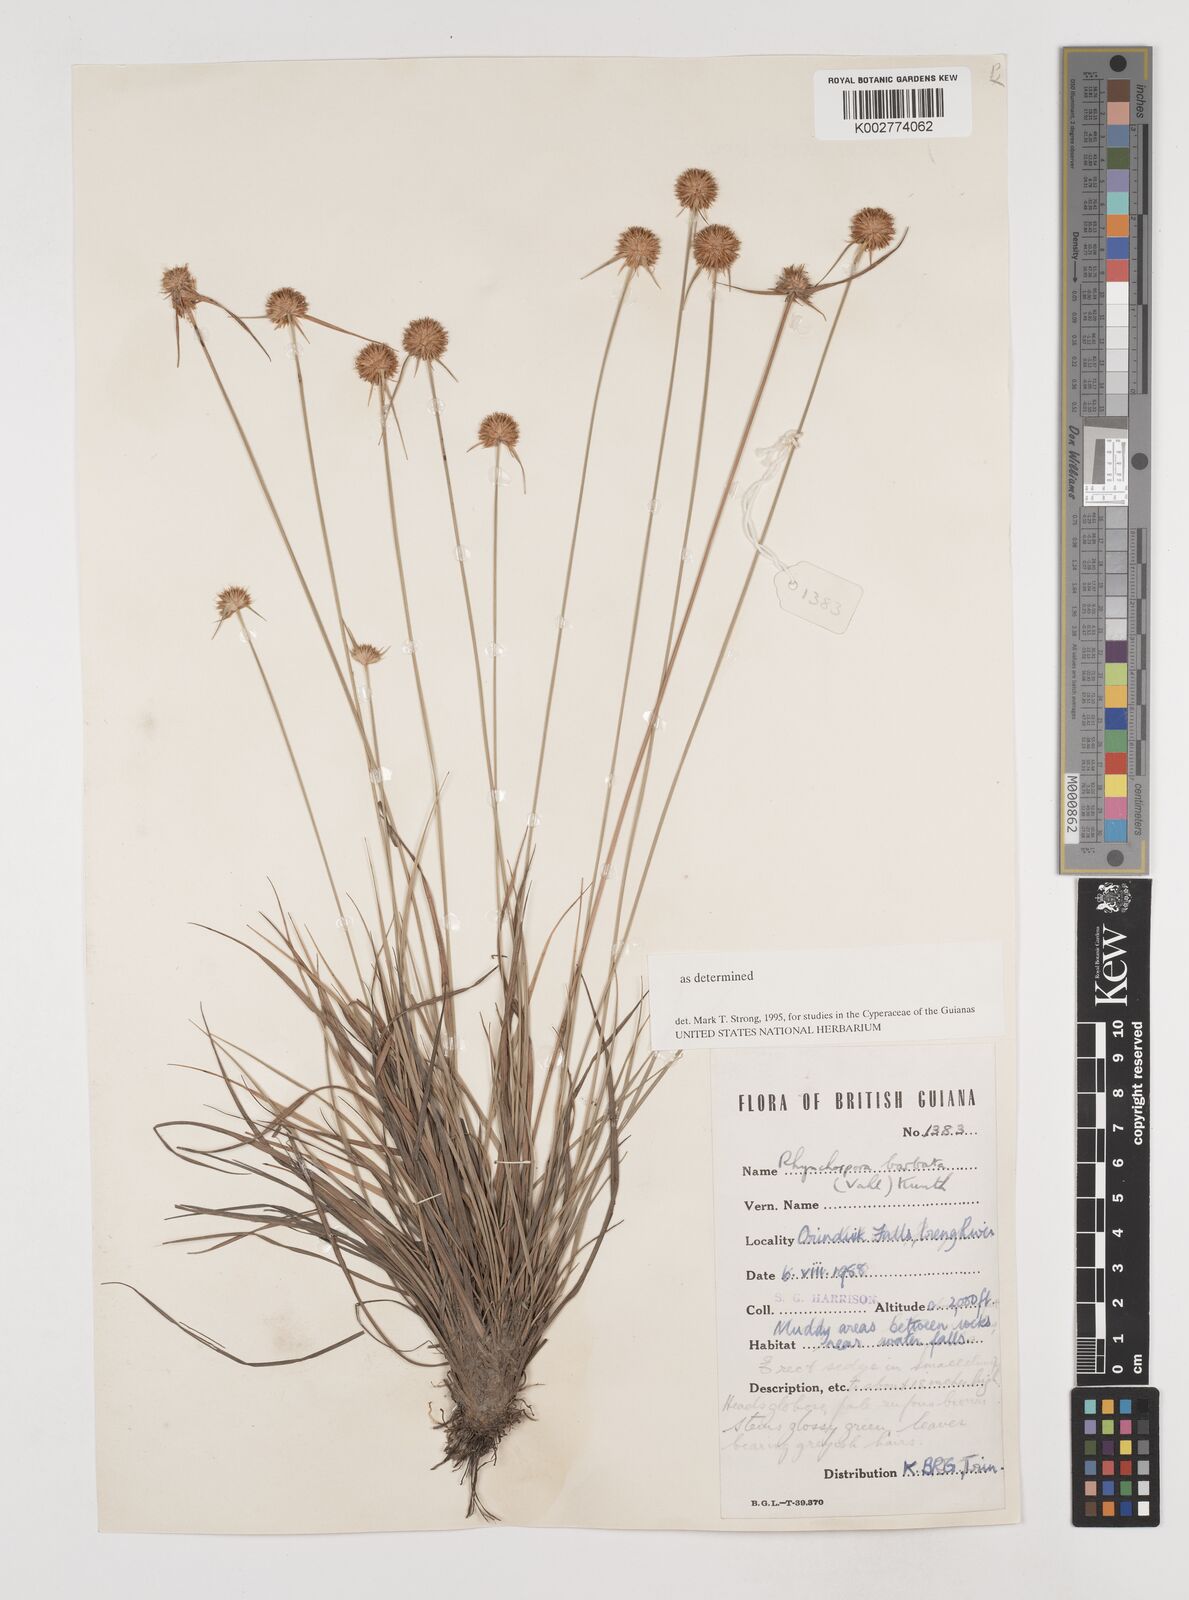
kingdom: Plantae
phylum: Tracheophyta
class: Liliopsida
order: Poales
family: Cyperaceae
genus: Rhynchospora
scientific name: Rhynchospora barbata
